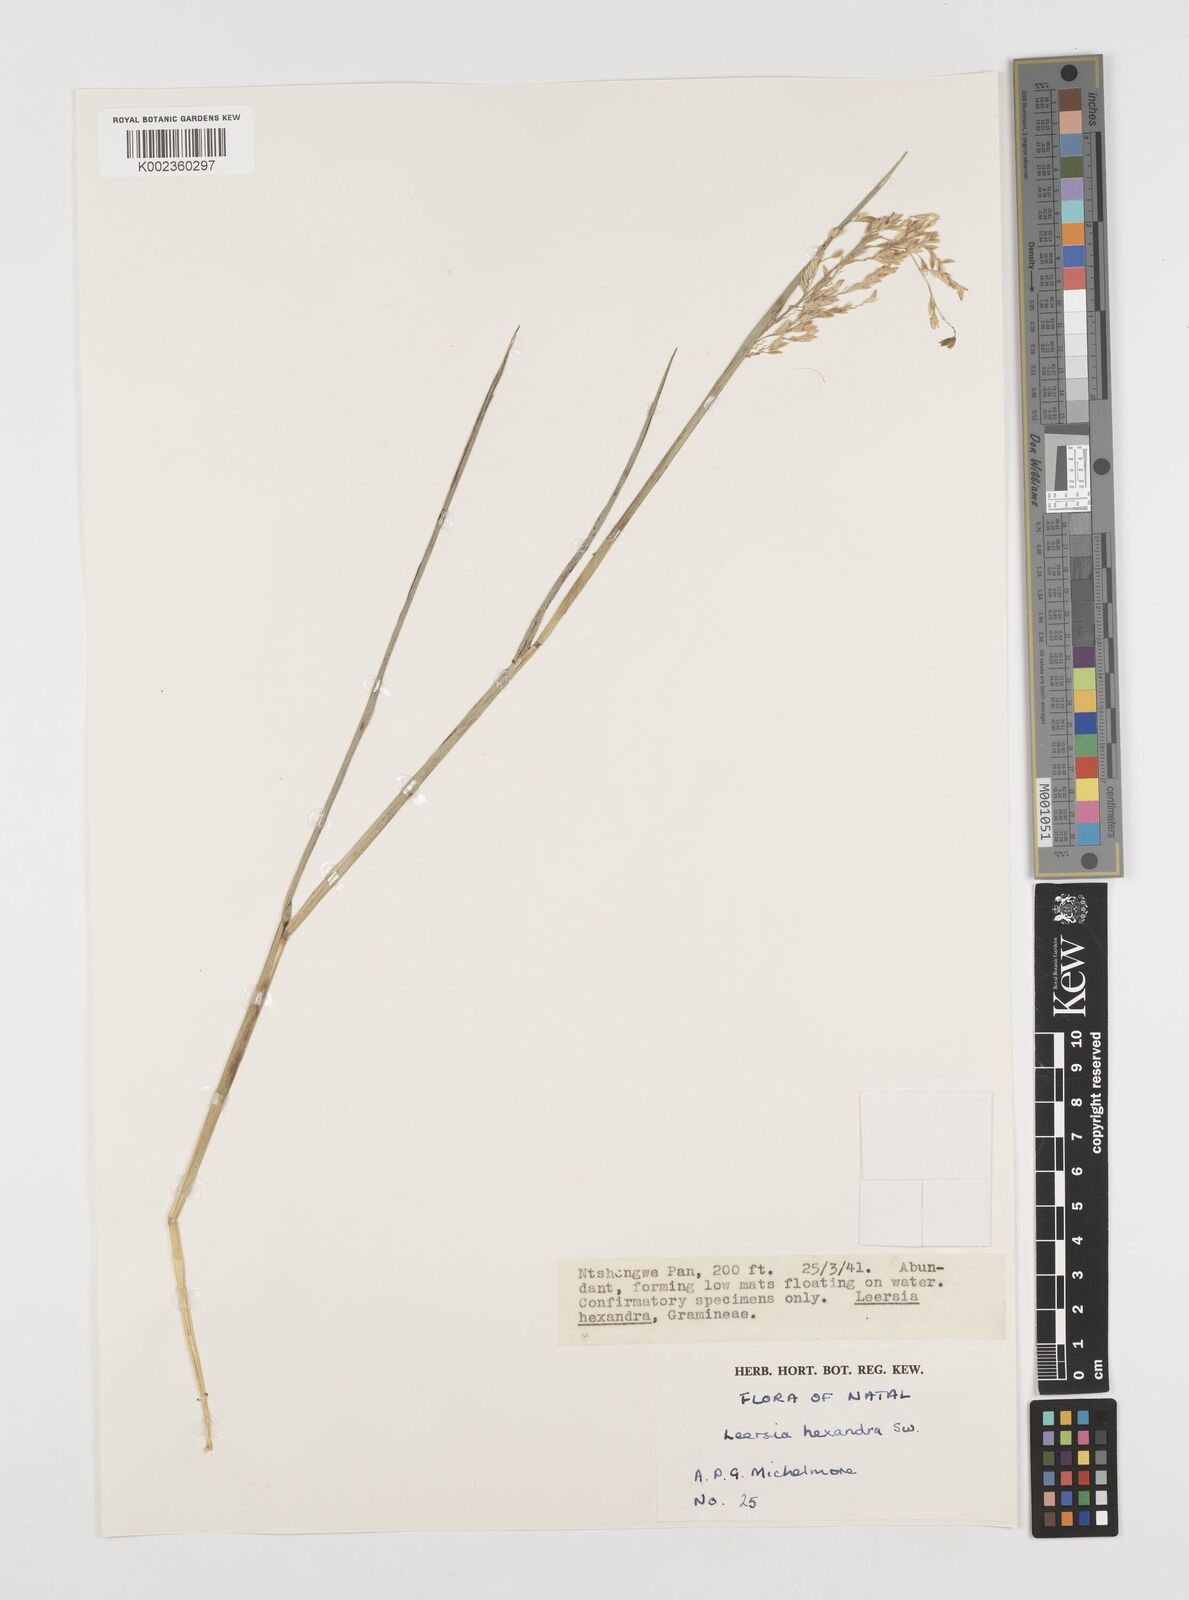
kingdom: Plantae
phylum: Tracheophyta
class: Liliopsida
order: Poales
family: Poaceae
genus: Leersia
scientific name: Leersia hexandra
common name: Southern cut grass
